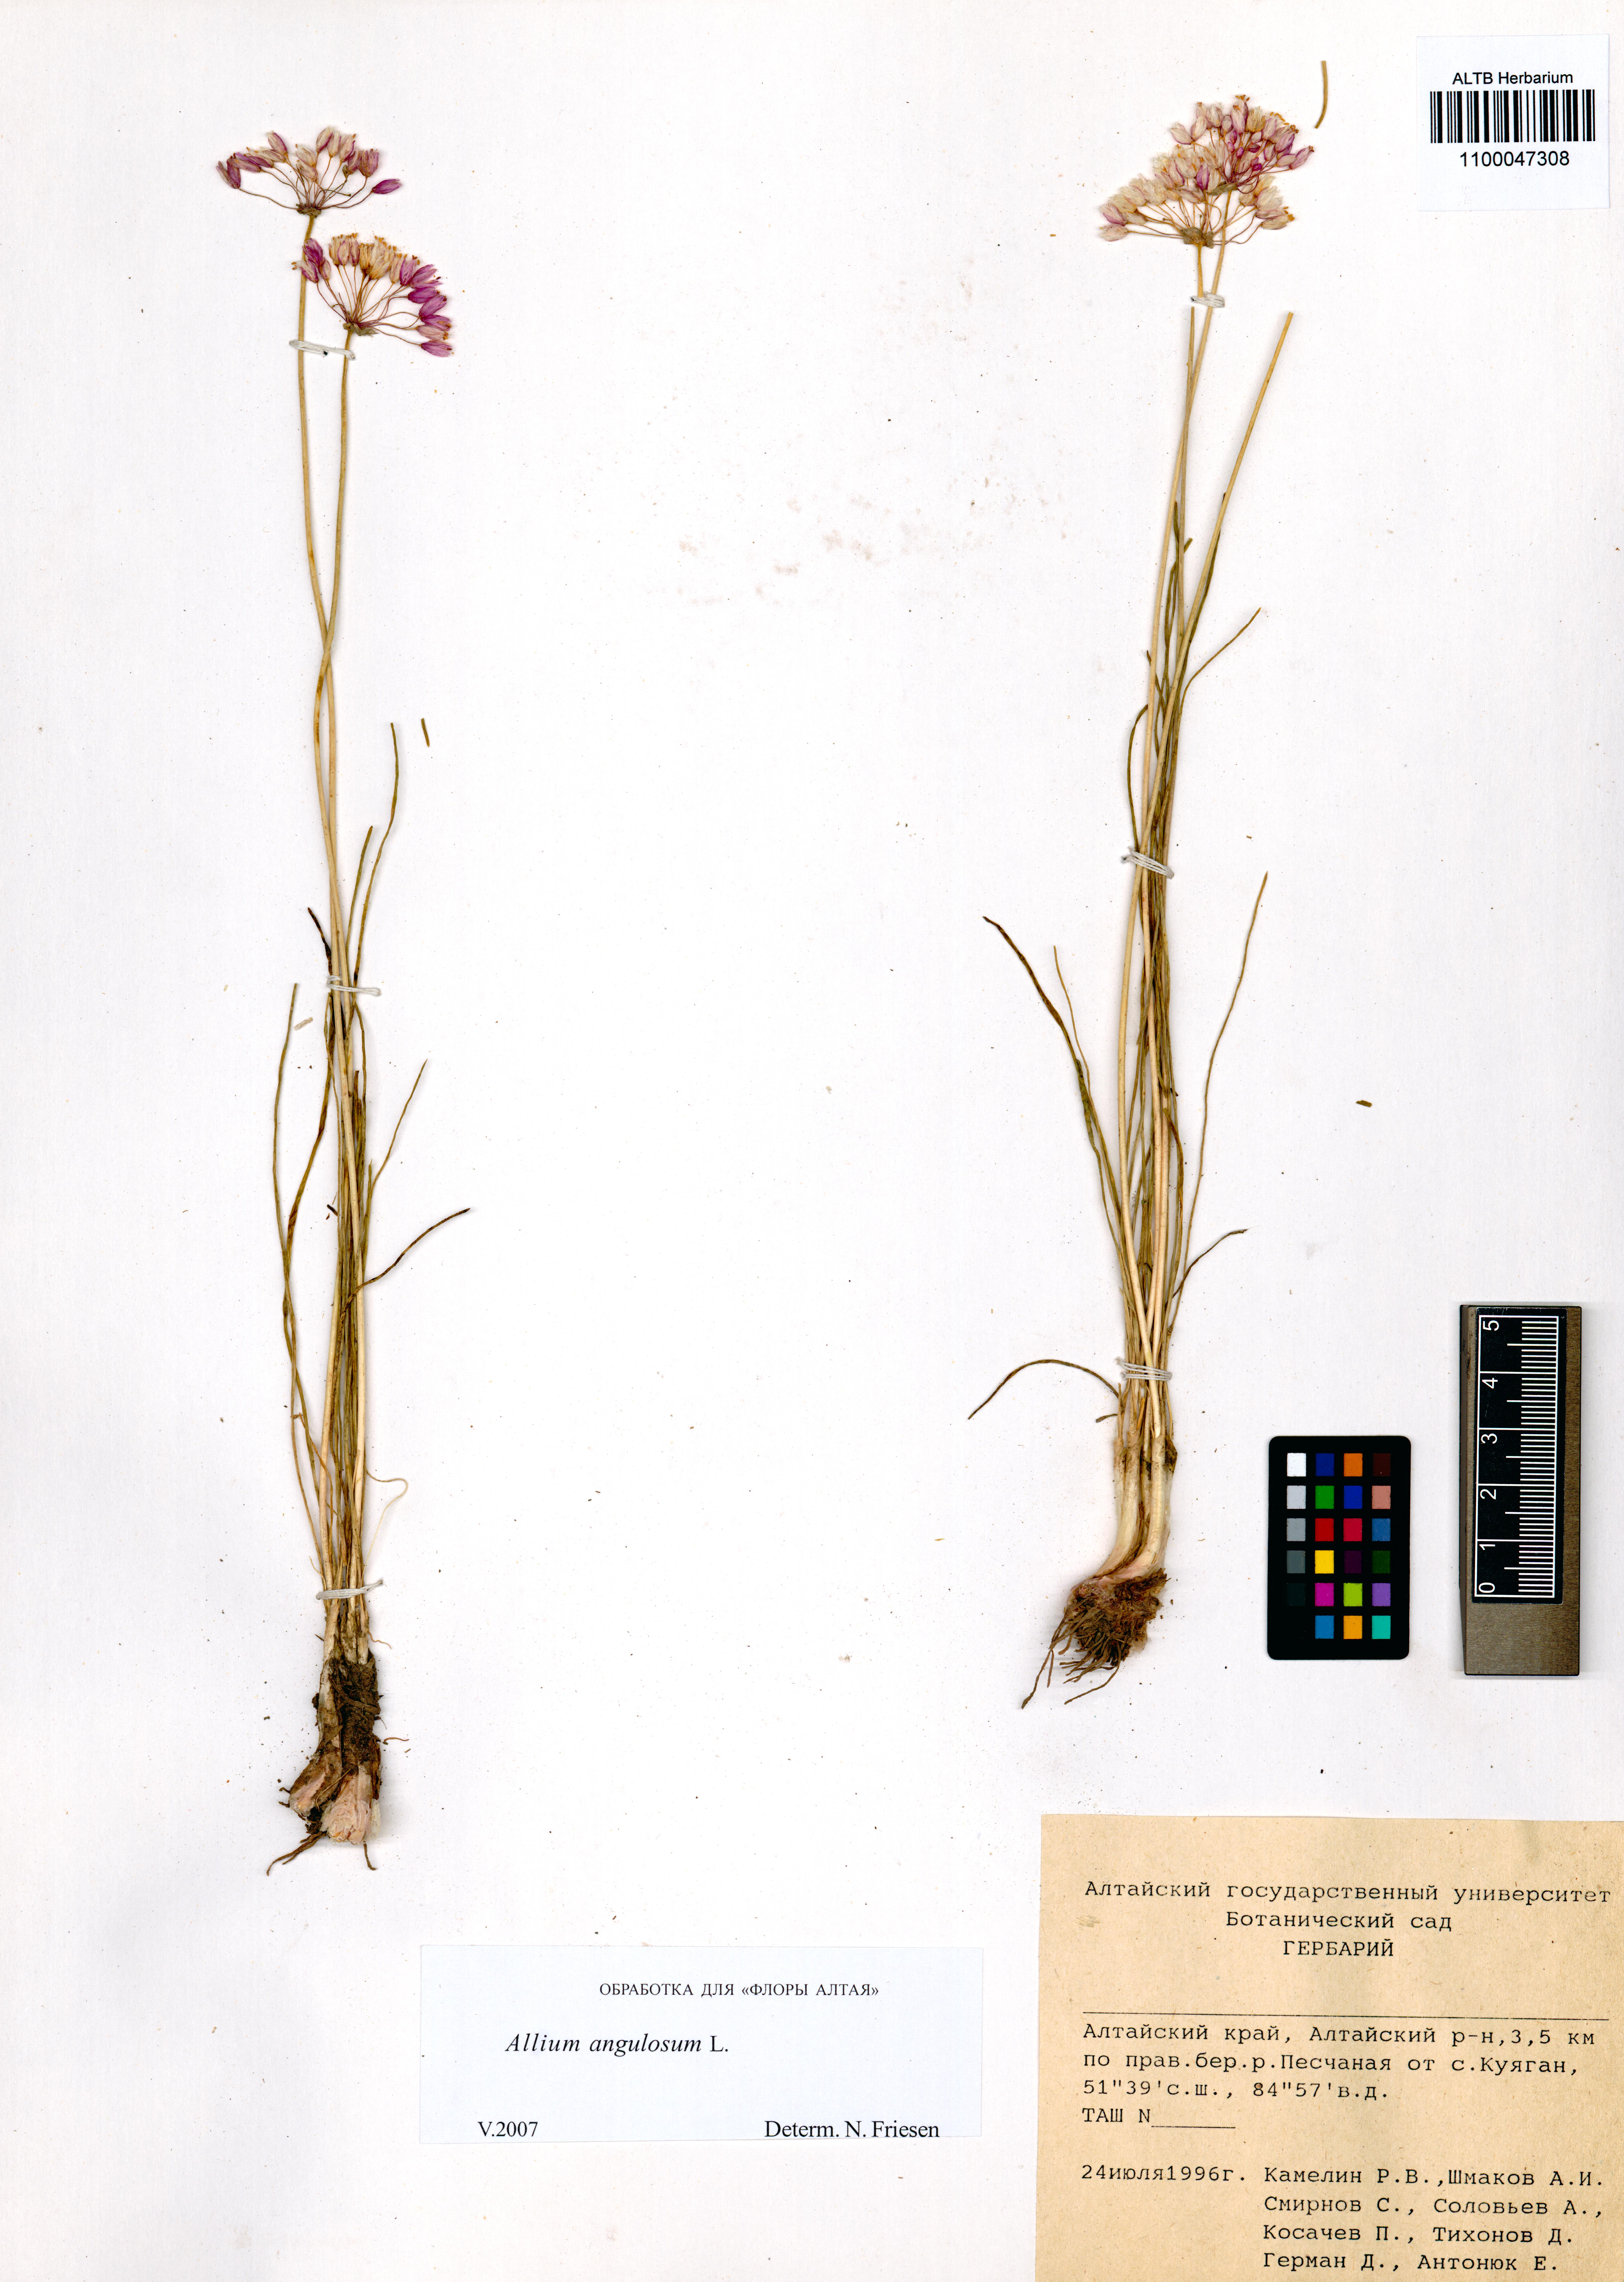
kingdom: Plantae
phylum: Tracheophyta
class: Liliopsida
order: Asparagales
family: Amaryllidaceae
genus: Allium
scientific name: Allium angulosum
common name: Mouse garlic
